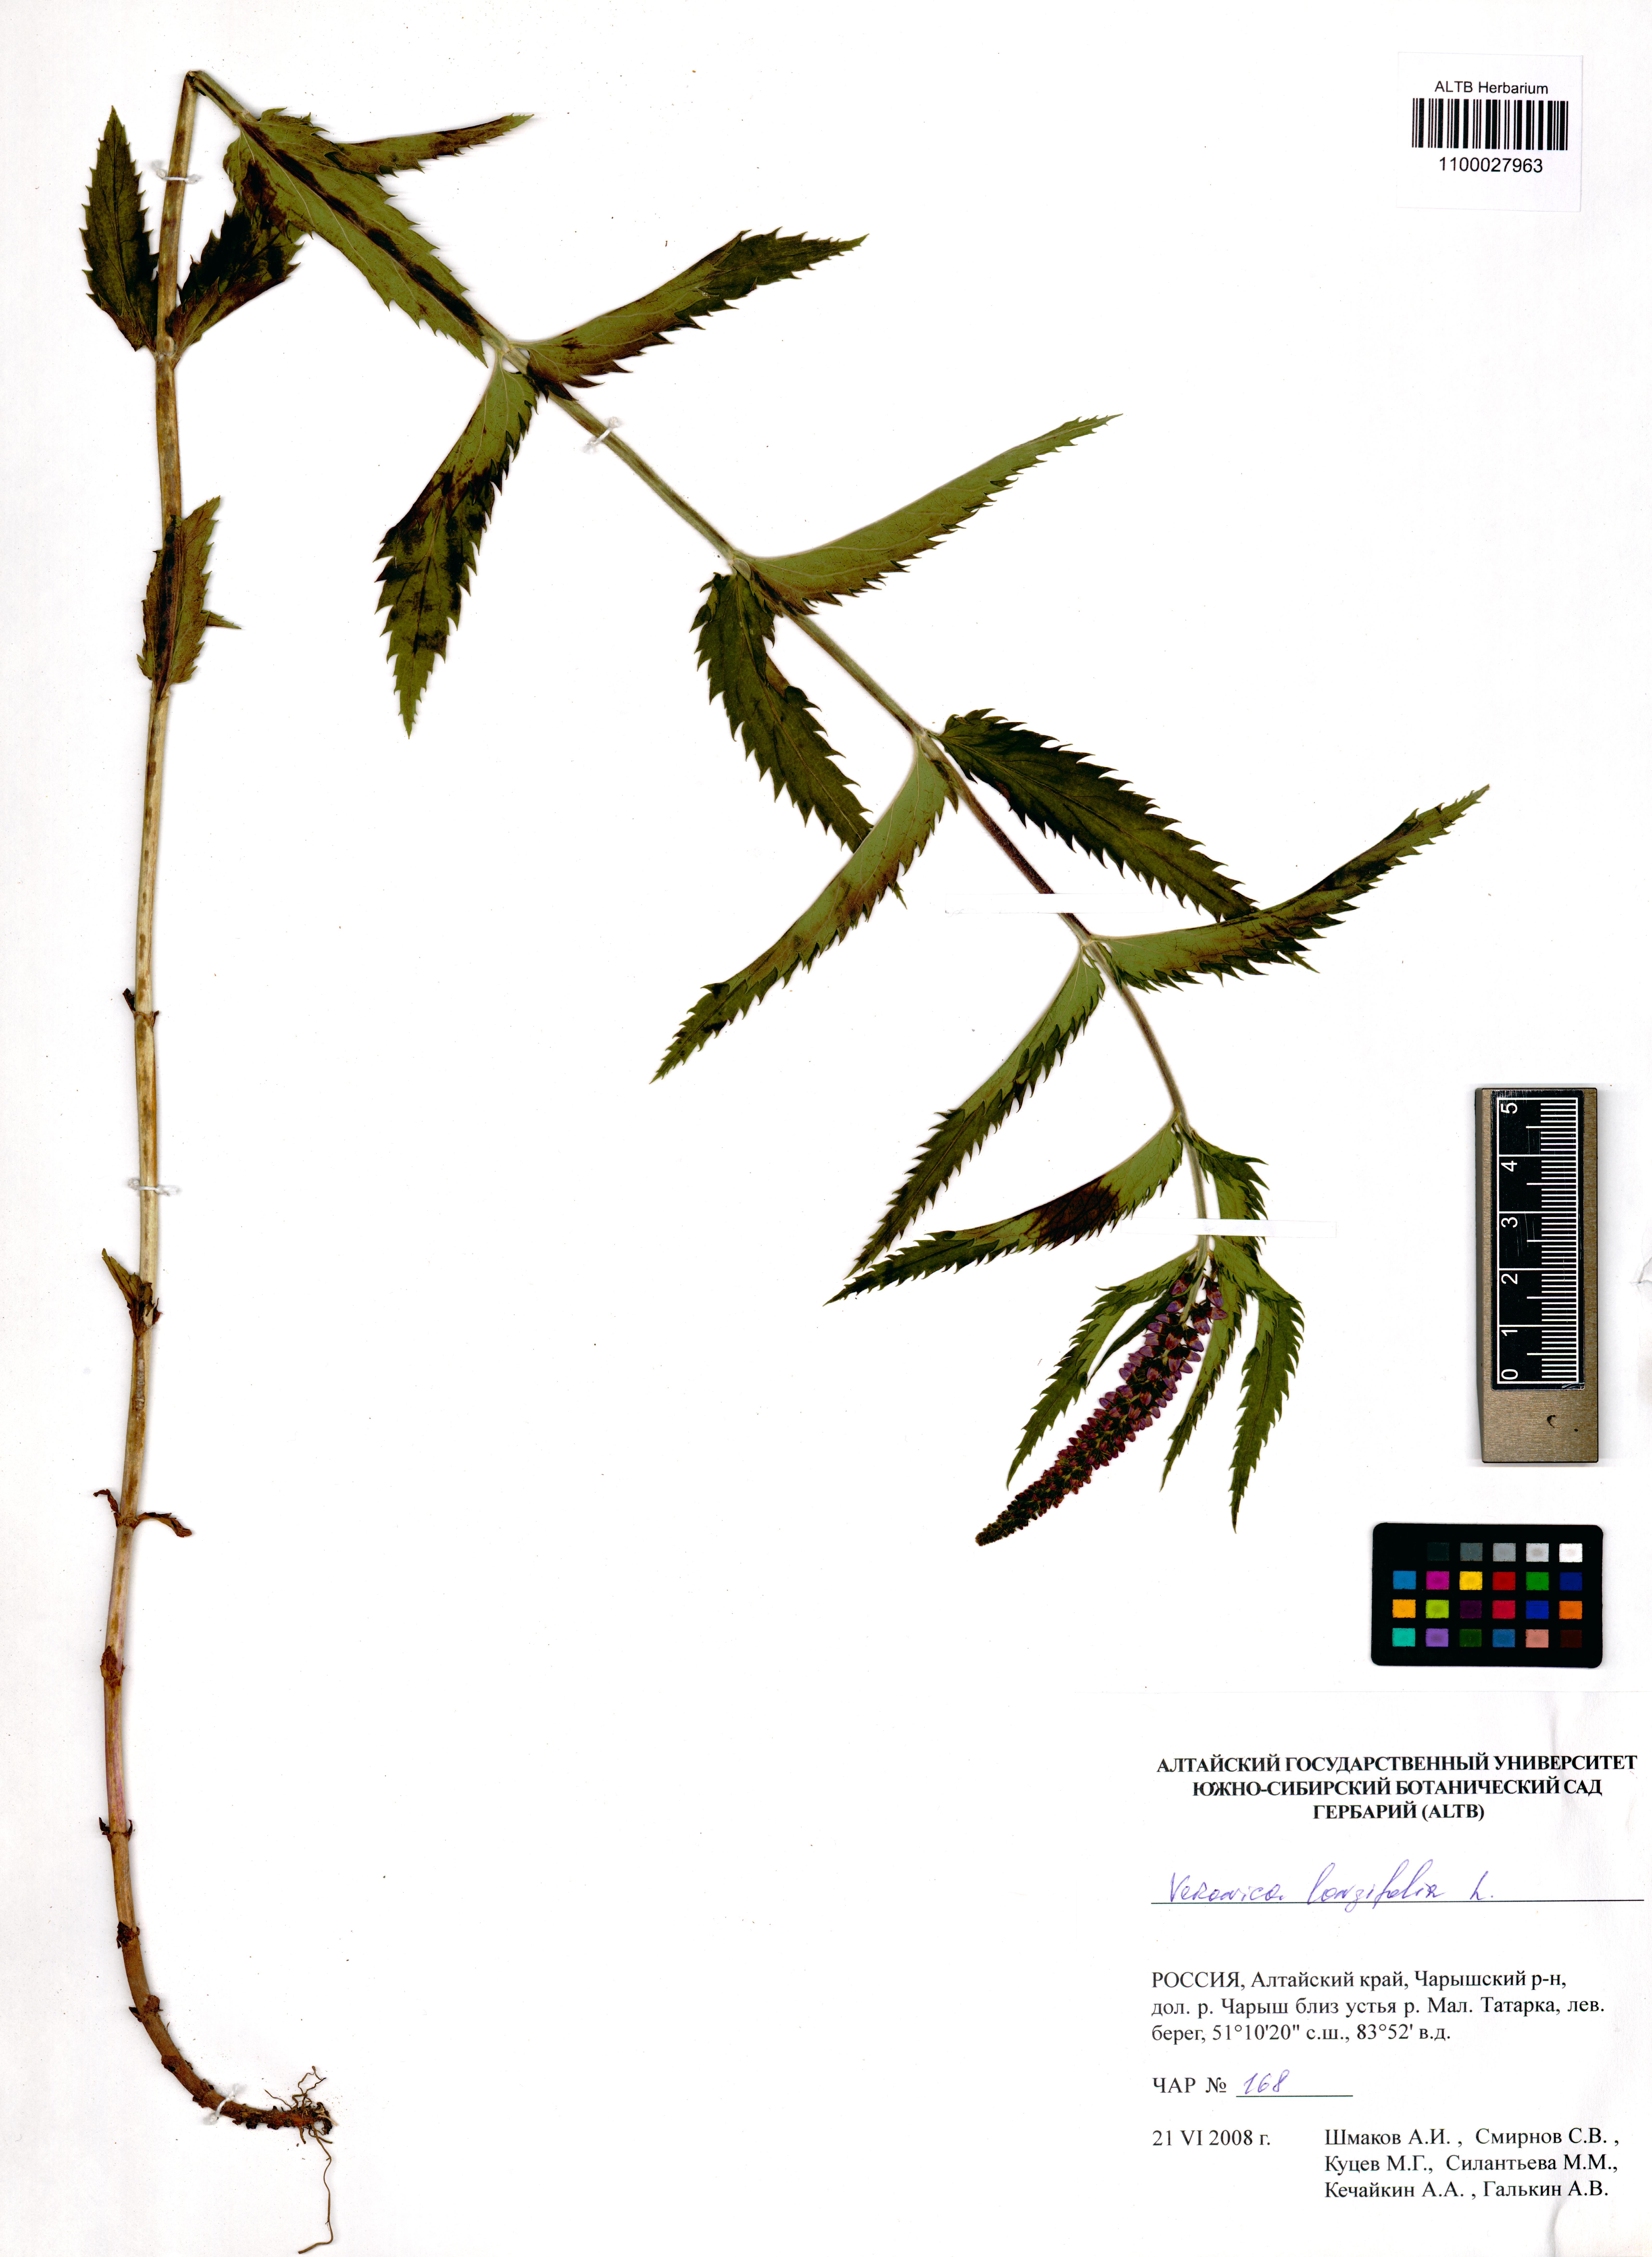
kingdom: Plantae
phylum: Tracheophyta
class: Magnoliopsida
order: Lamiales
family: Plantaginaceae
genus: Veronica
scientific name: Veronica longifolia
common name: Garden speedwell
